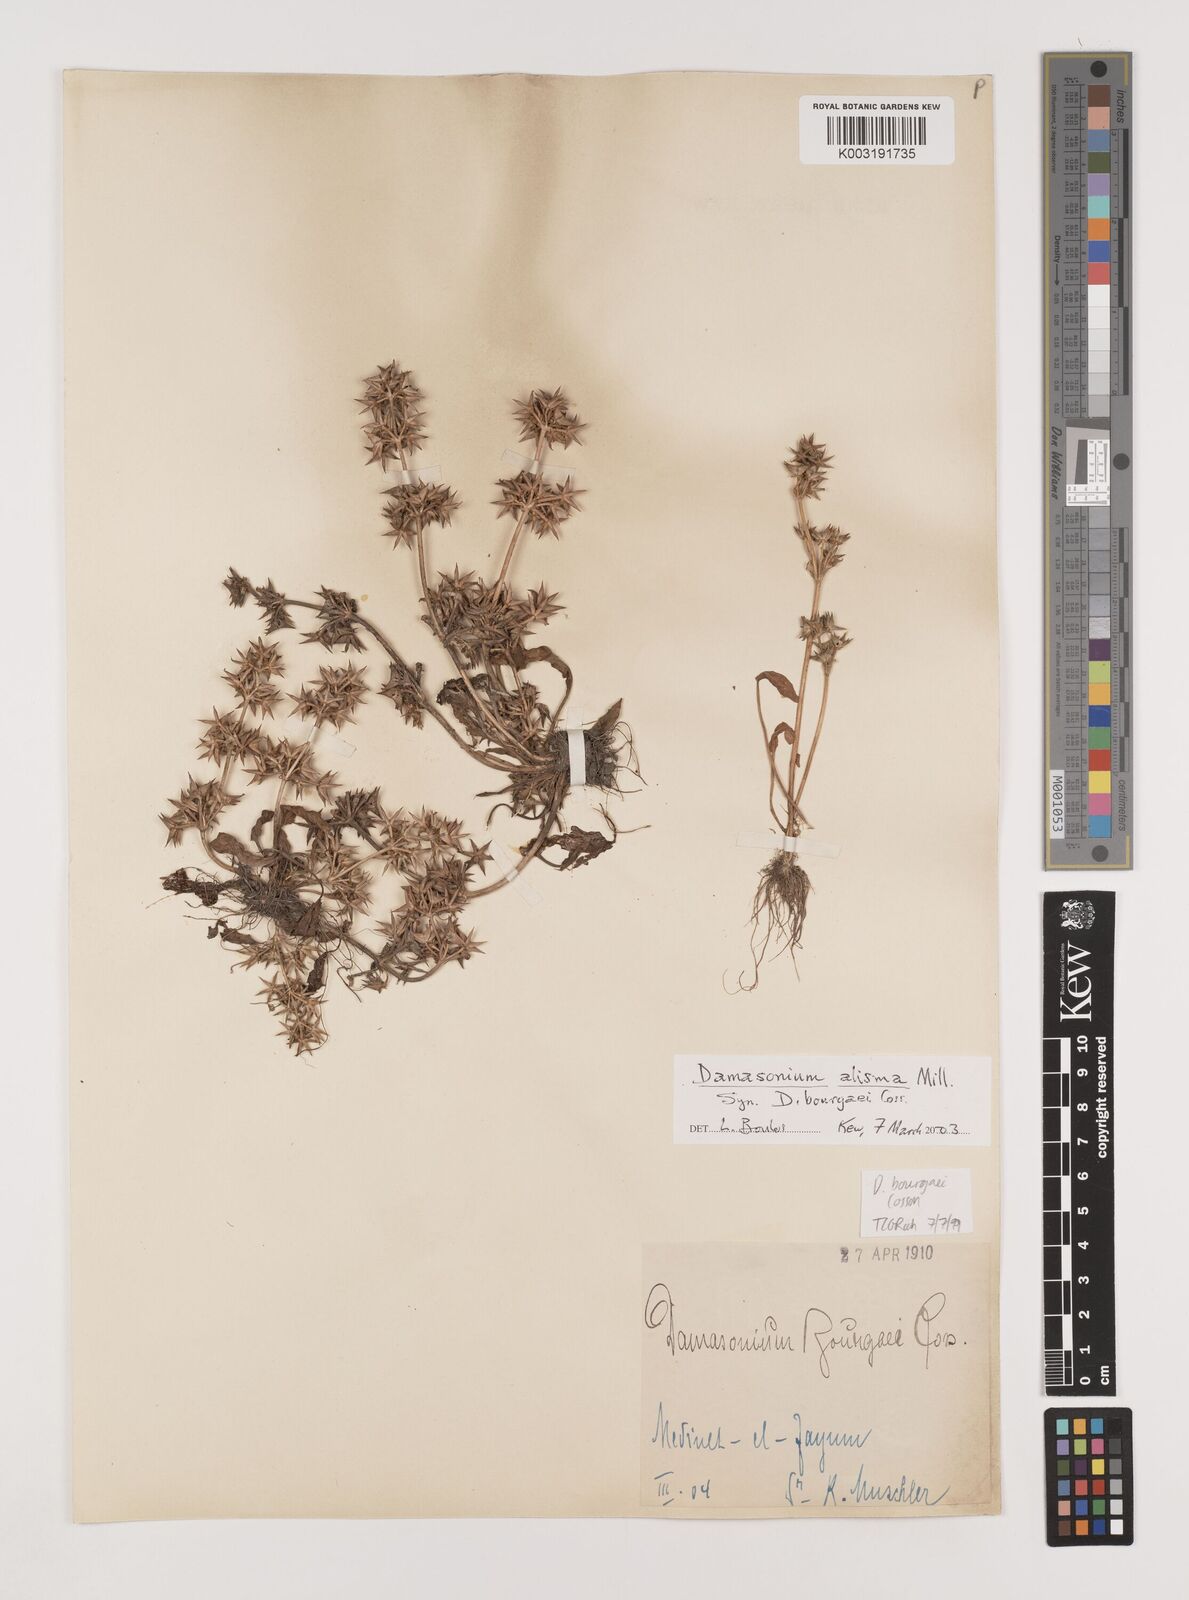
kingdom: Plantae
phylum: Tracheophyta
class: Liliopsida
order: Alismatales
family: Alismataceae
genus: Damasonium
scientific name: Damasonium bourgaei
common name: Starfruit
